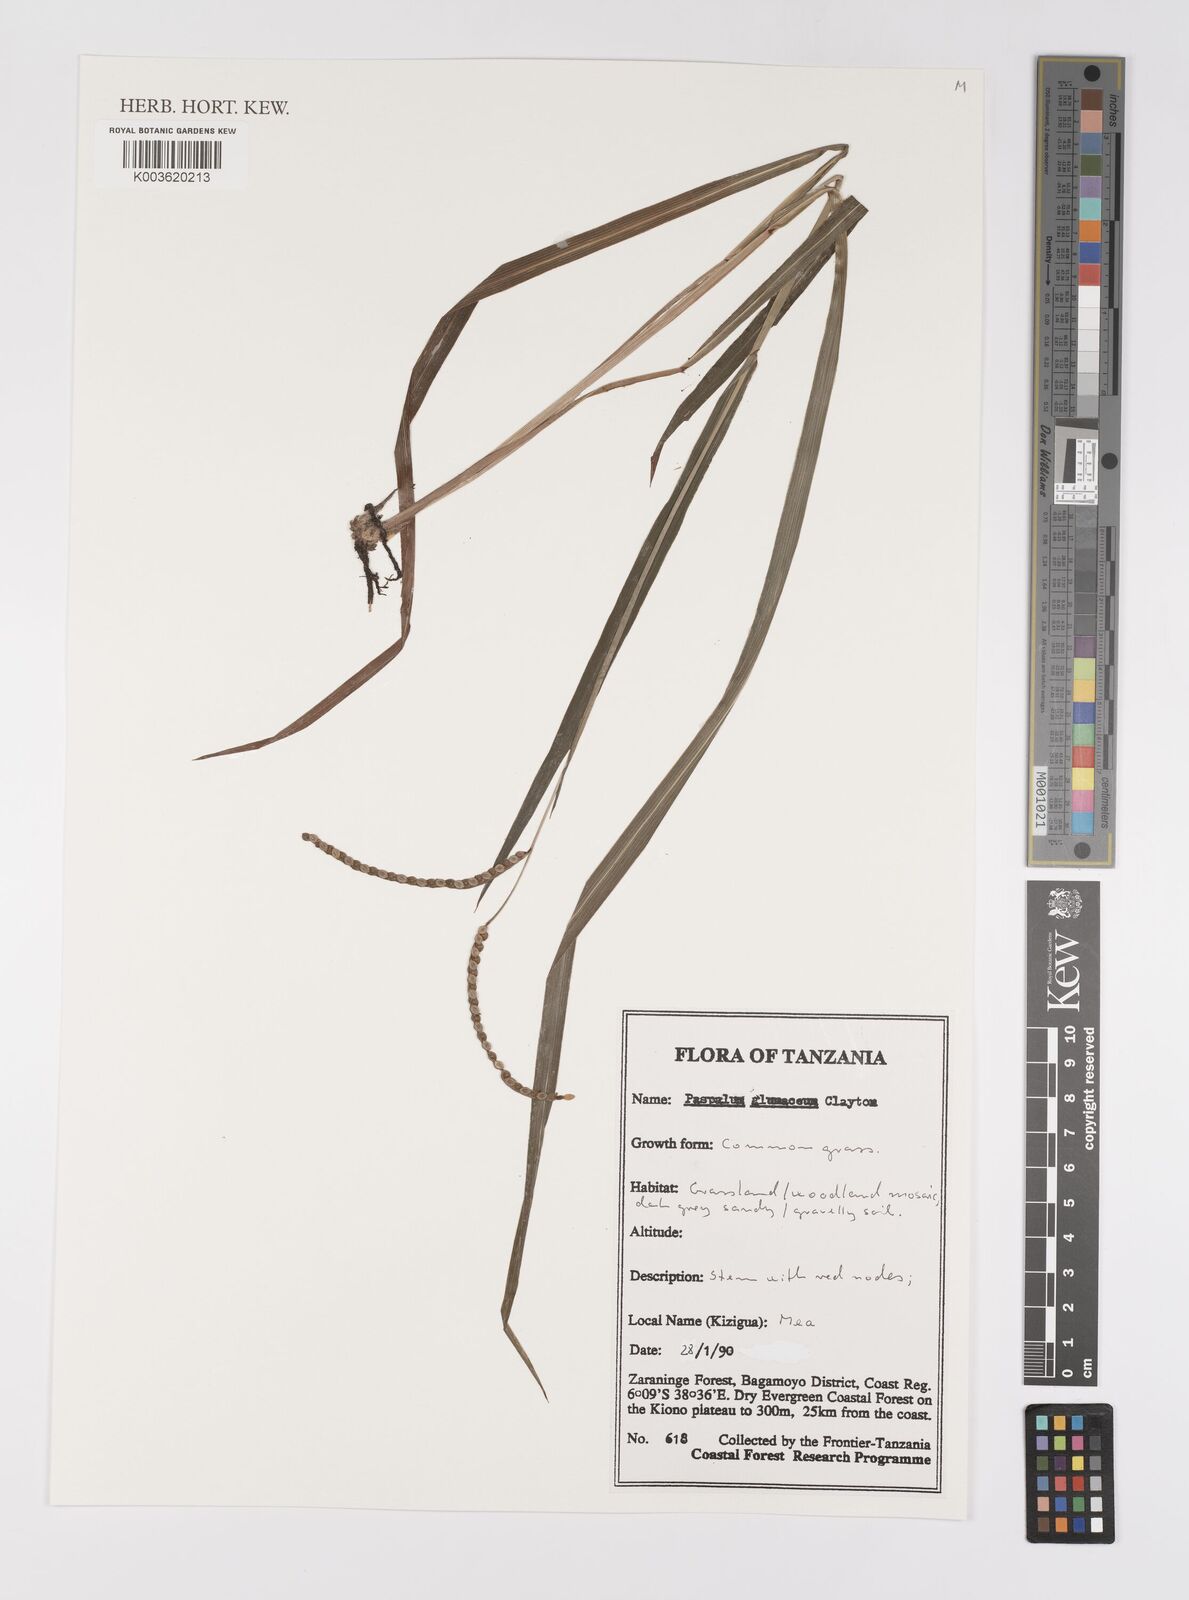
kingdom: Plantae
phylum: Tracheophyta
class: Liliopsida
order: Poales
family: Poaceae
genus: Paspalum
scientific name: Paspalum glumaceum
